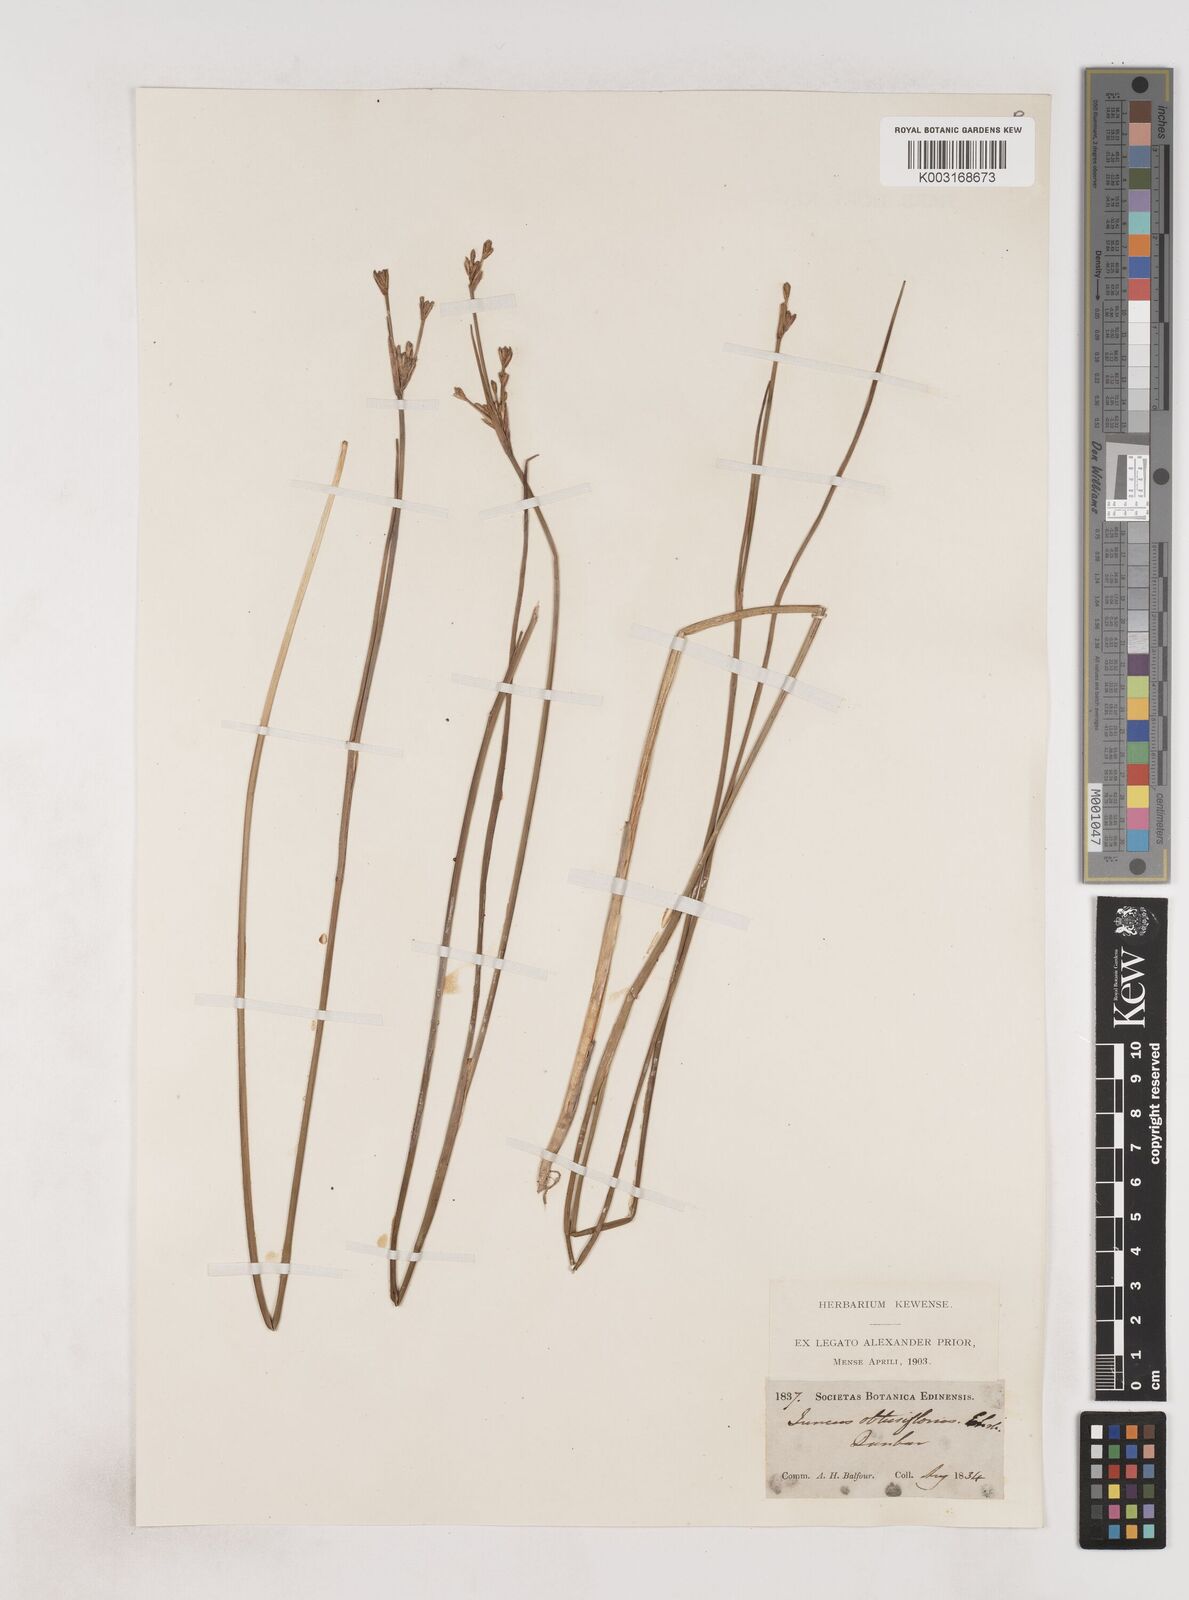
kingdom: Plantae
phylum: Tracheophyta
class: Liliopsida
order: Poales
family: Juncaceae
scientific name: Juncaceae
